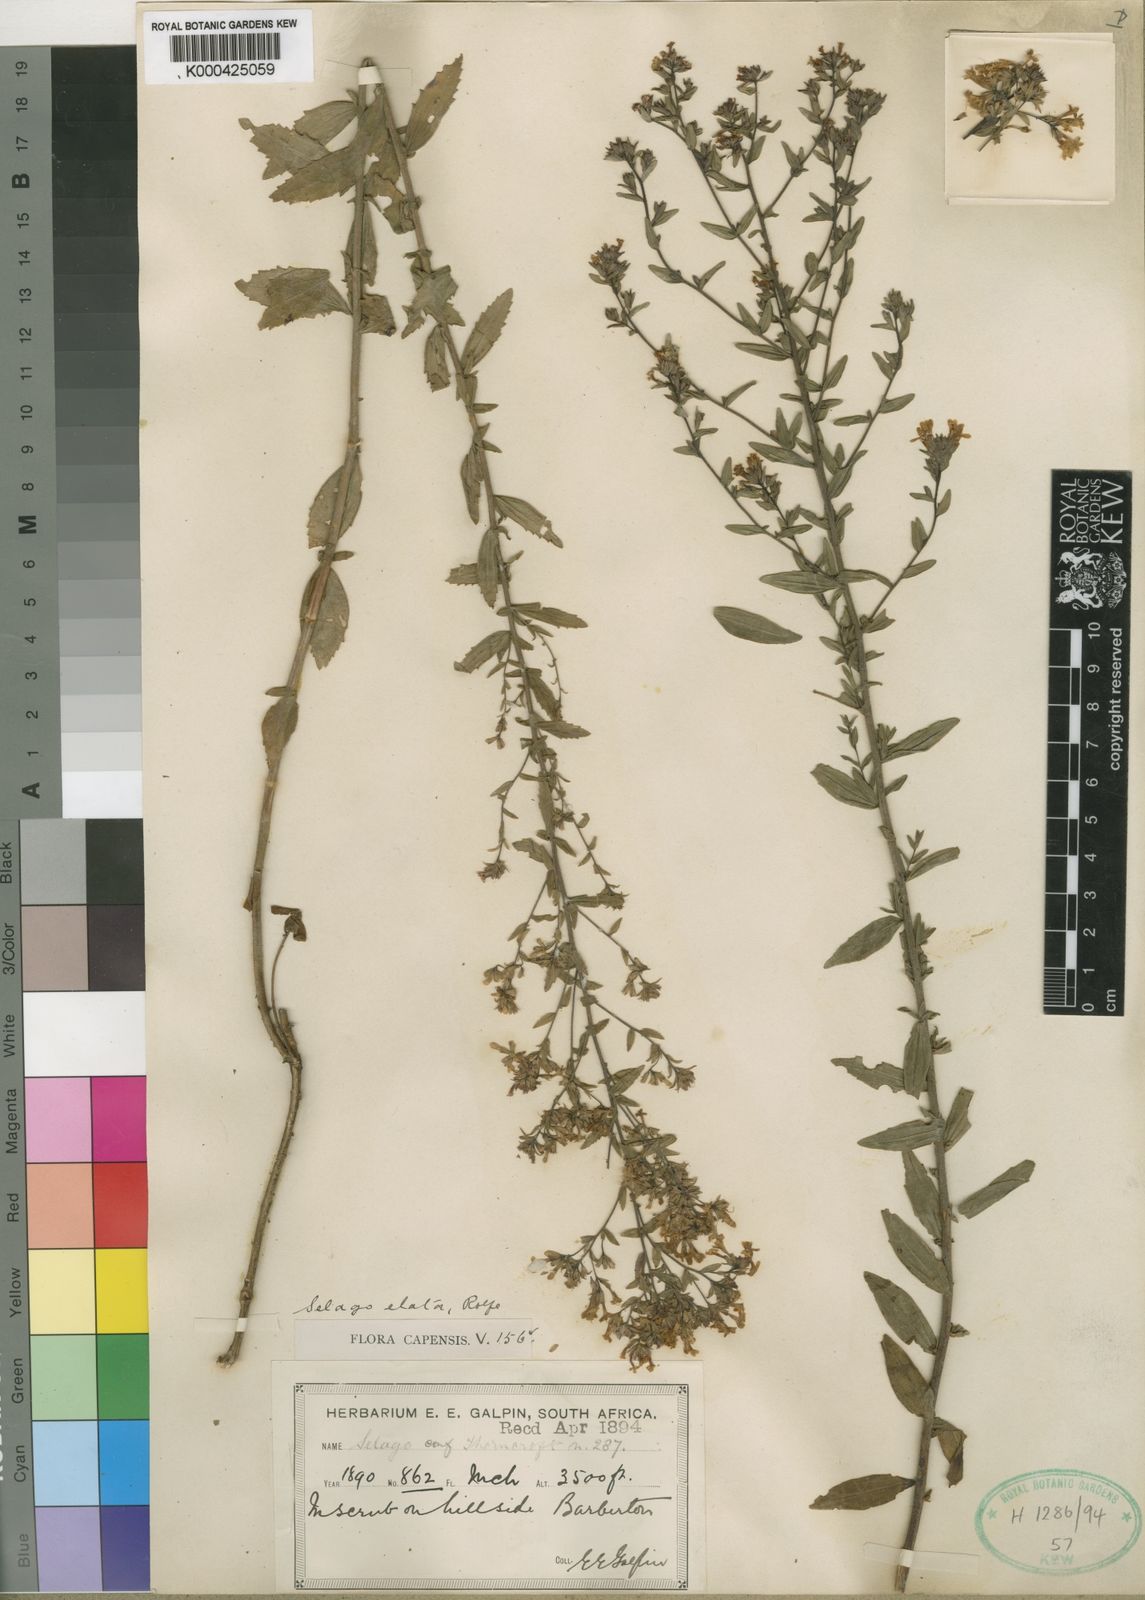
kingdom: Plantae
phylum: Tracheophyta
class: Magnoliopsida
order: Lamiales
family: Scrophulariaceae
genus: Selago
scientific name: Selago procera
